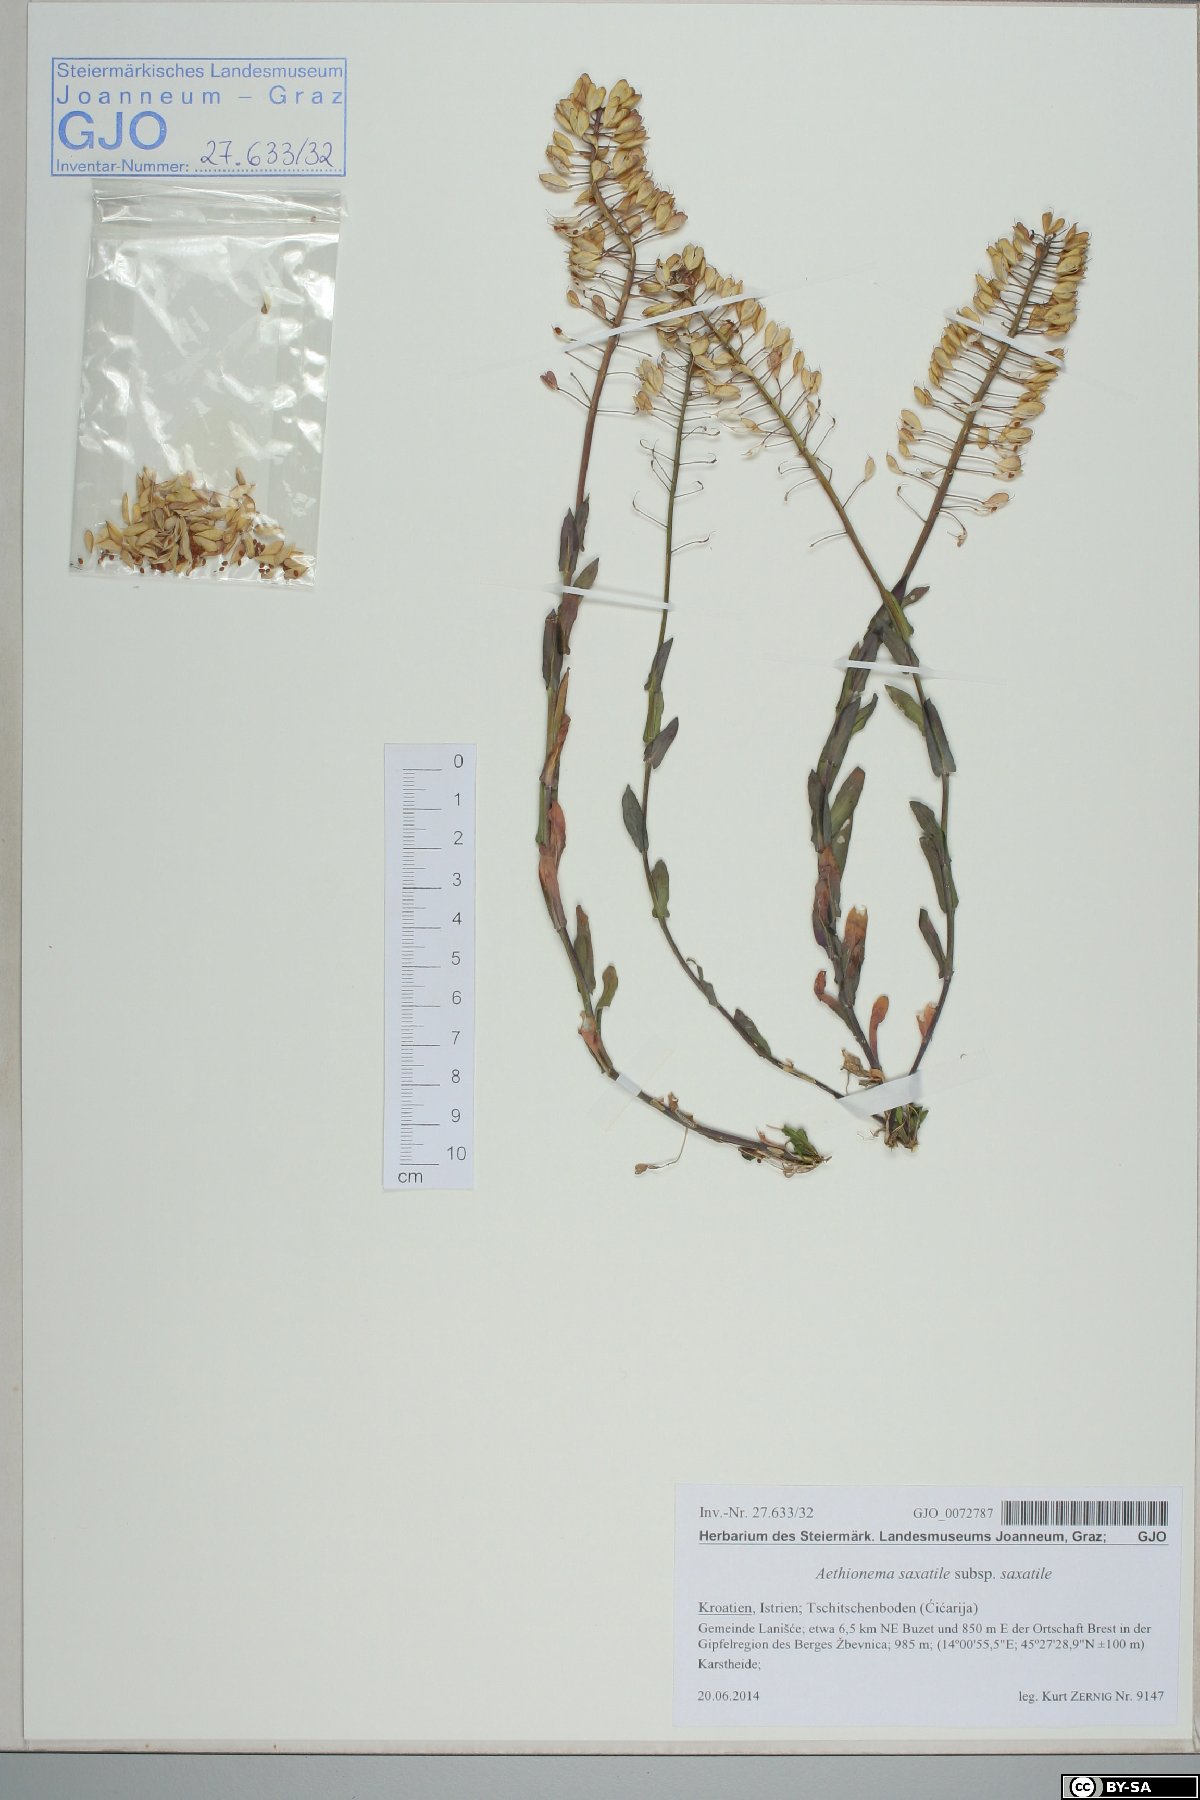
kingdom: Plantae
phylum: Tracheophyta
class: Magnoliopsida
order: Brassicales
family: Brassicaceae
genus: Aethionema
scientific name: Aethionema saxatile
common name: Burnt candytuft
